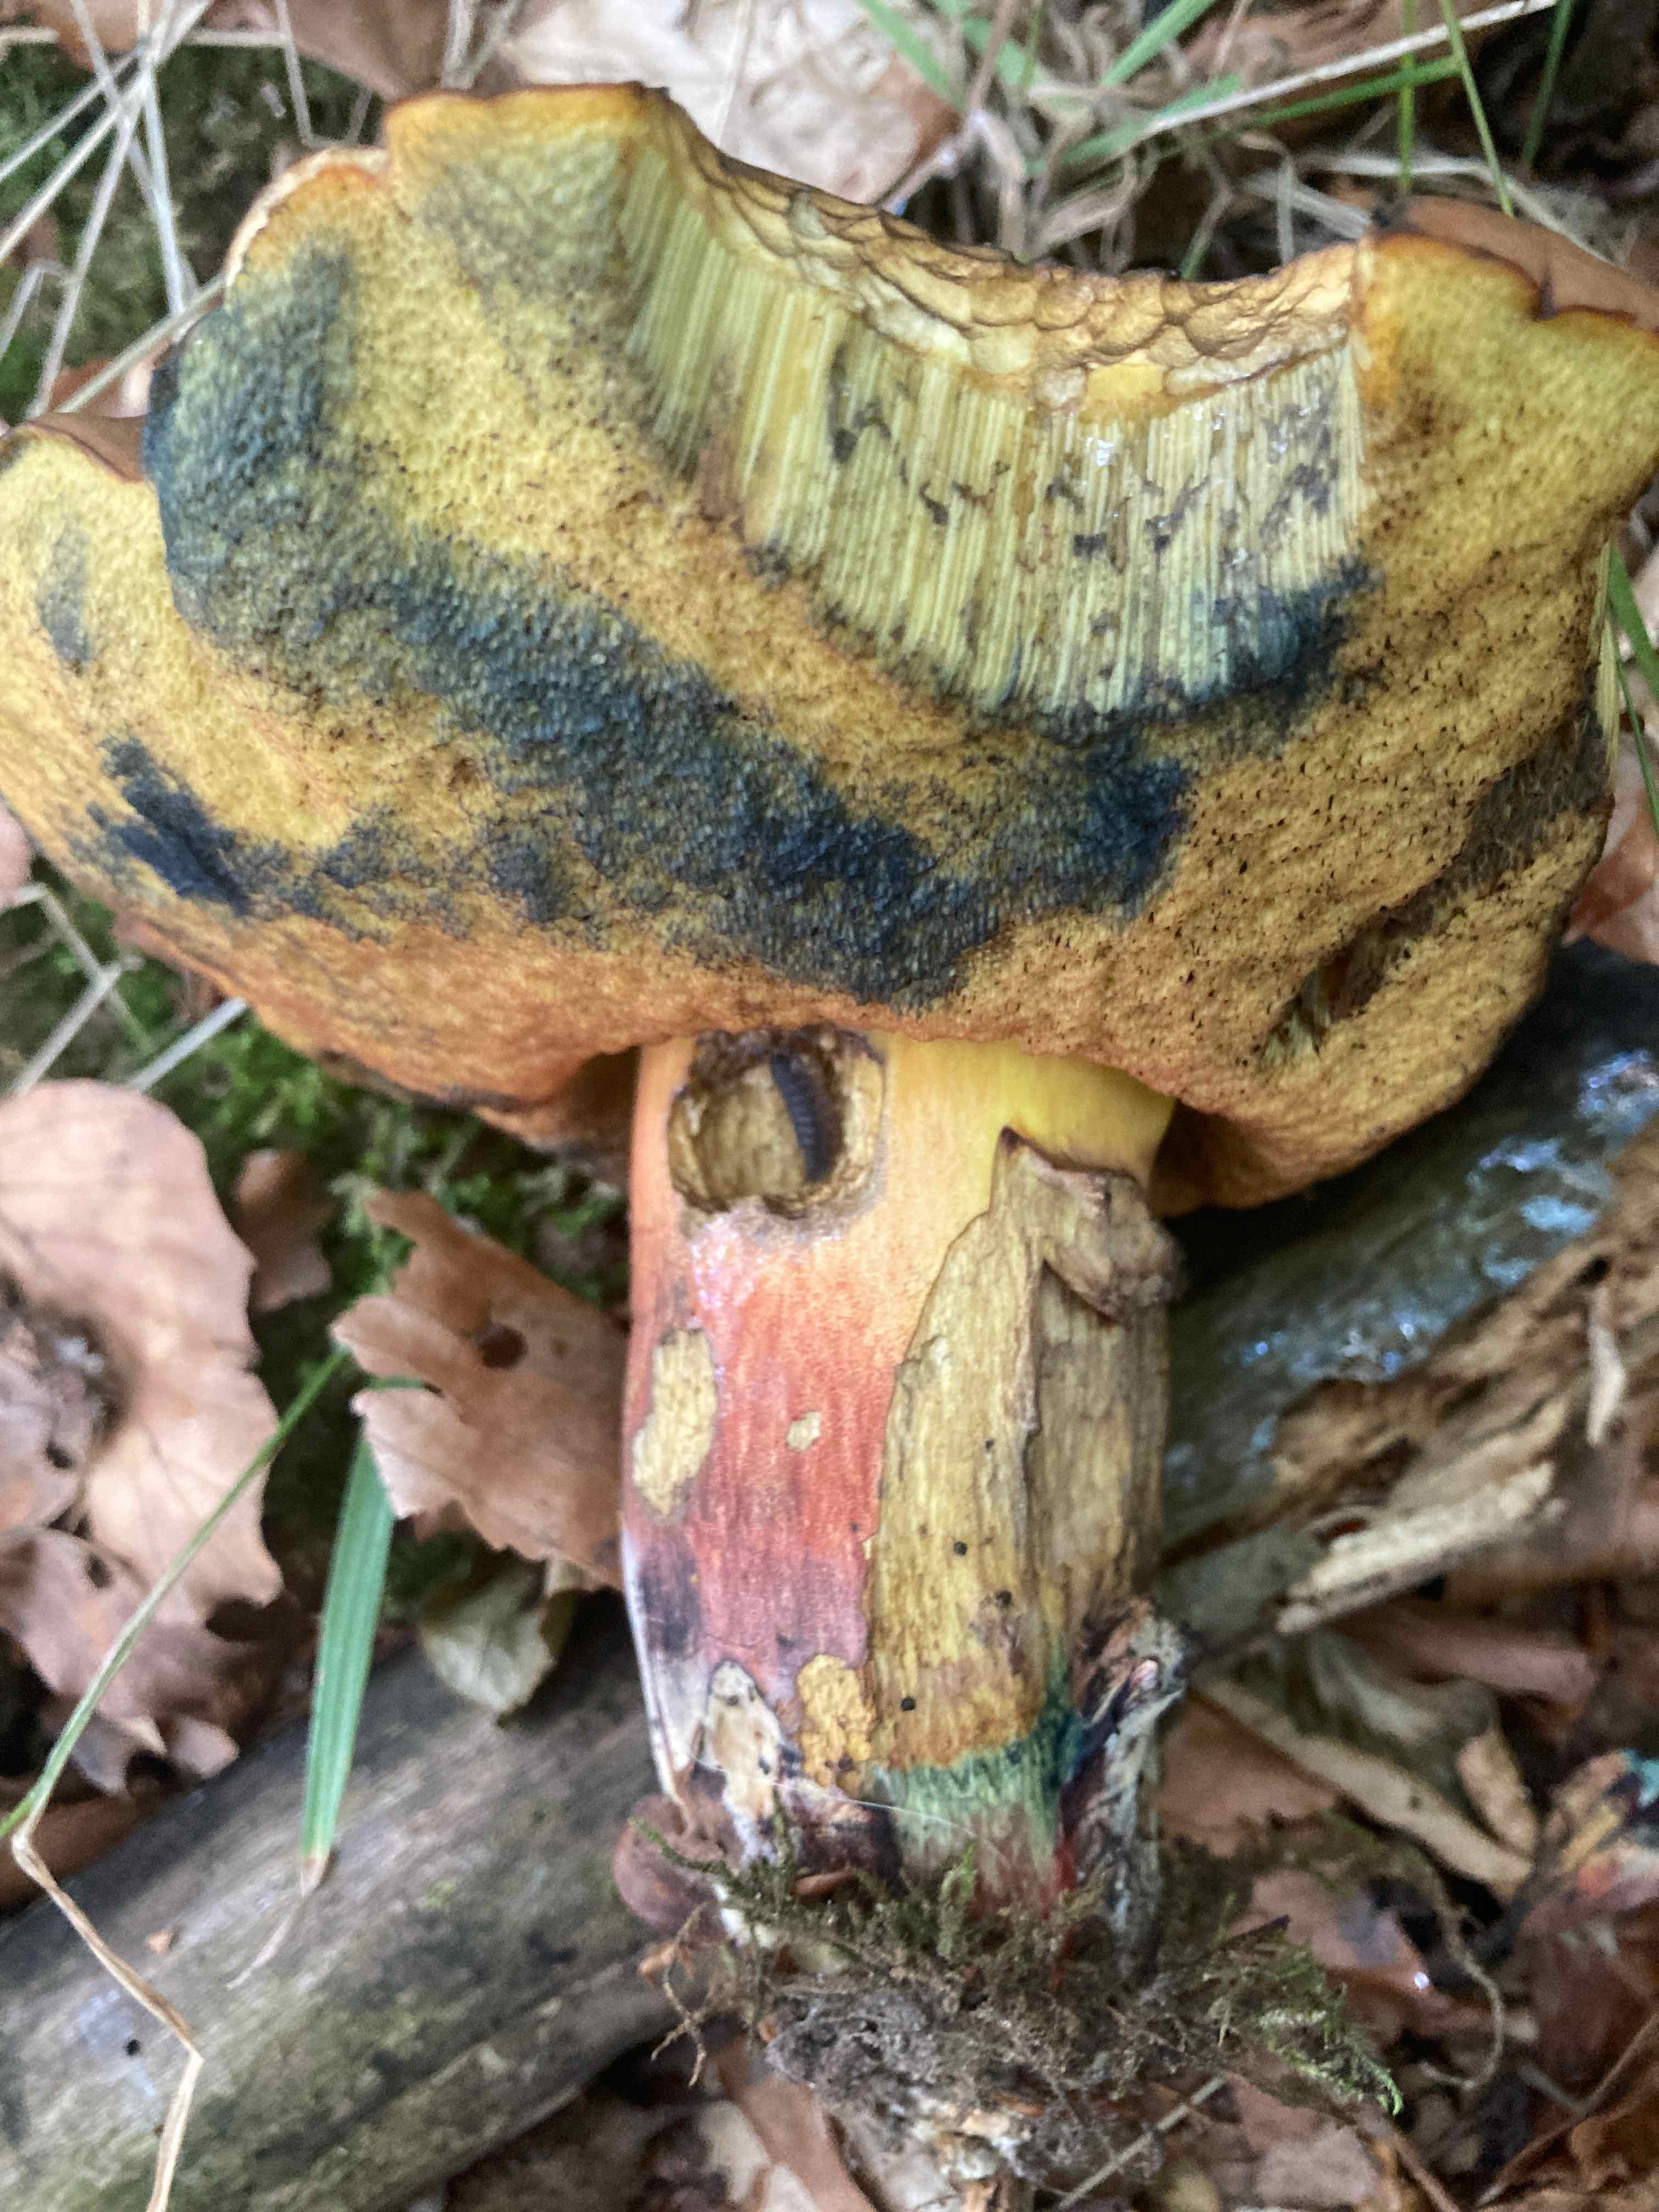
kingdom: Fungi
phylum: Basidiomycota
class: Agaricomycetes
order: Boletales
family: Boletaceae
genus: Neoboletus
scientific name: Neoboletus xanthopus
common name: finprikket indigorørhat
